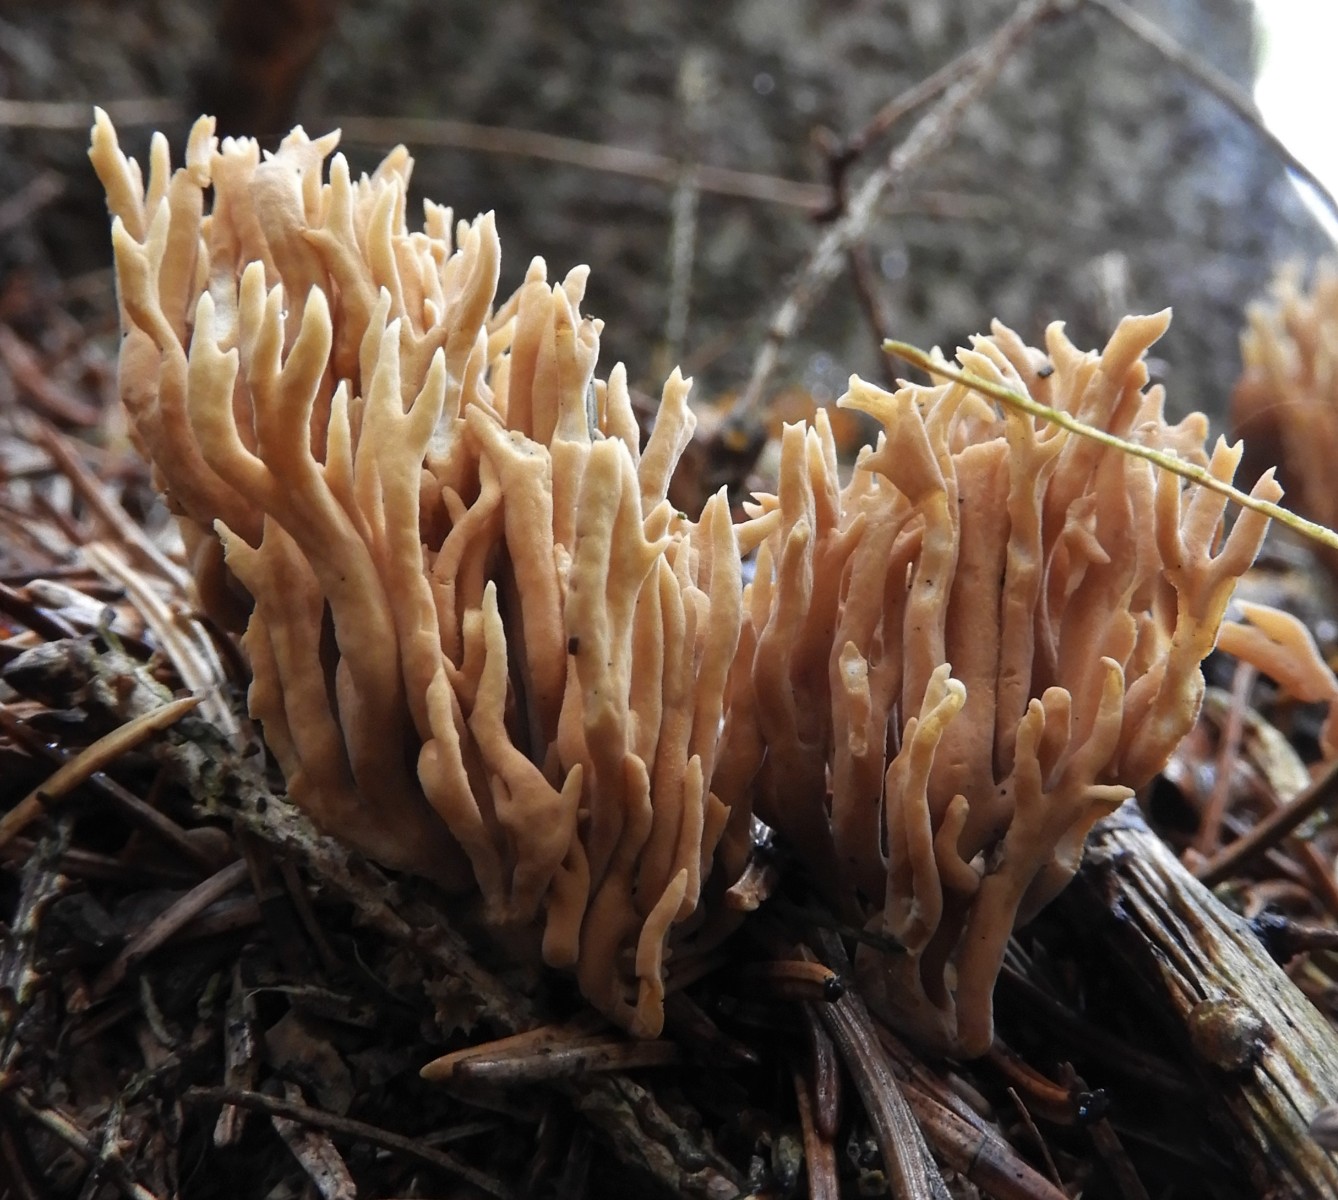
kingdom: Fungi
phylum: Basidiomycota
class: Agaricomycetes
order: Gomphales
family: Gomphaceae
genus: Phaeoclavulina
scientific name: Phaeoclavulina eumorpha
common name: gran-koralsvamp
